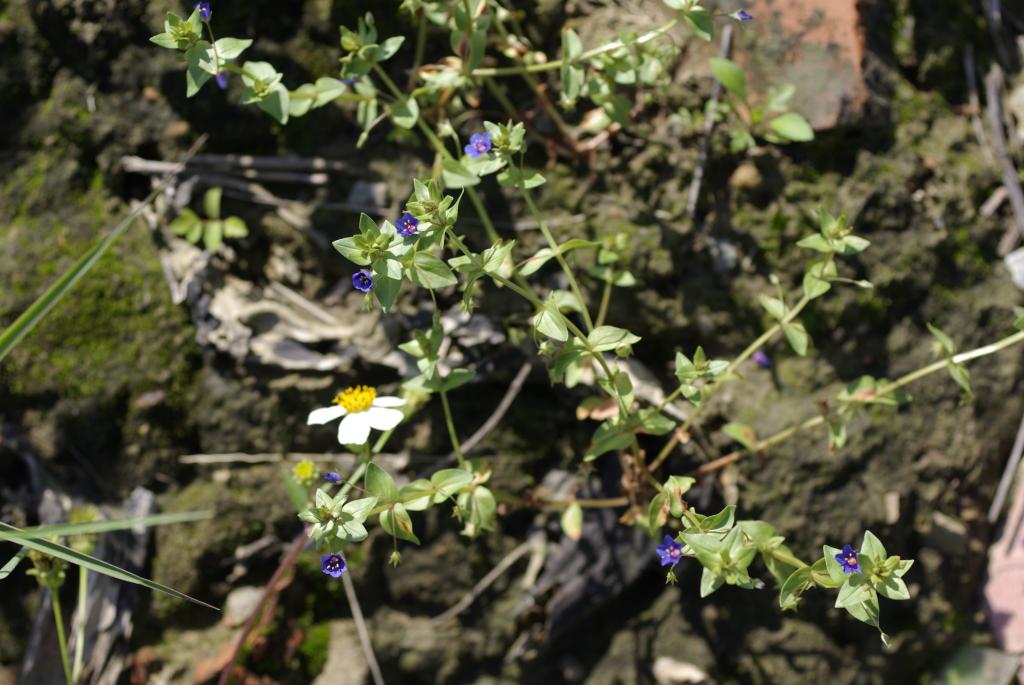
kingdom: Plantae
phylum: Tracheophyta
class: Magnoliopsida
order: Ericales
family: Primulaceae
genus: Lysimachia
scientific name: Lysimachia arvensis
